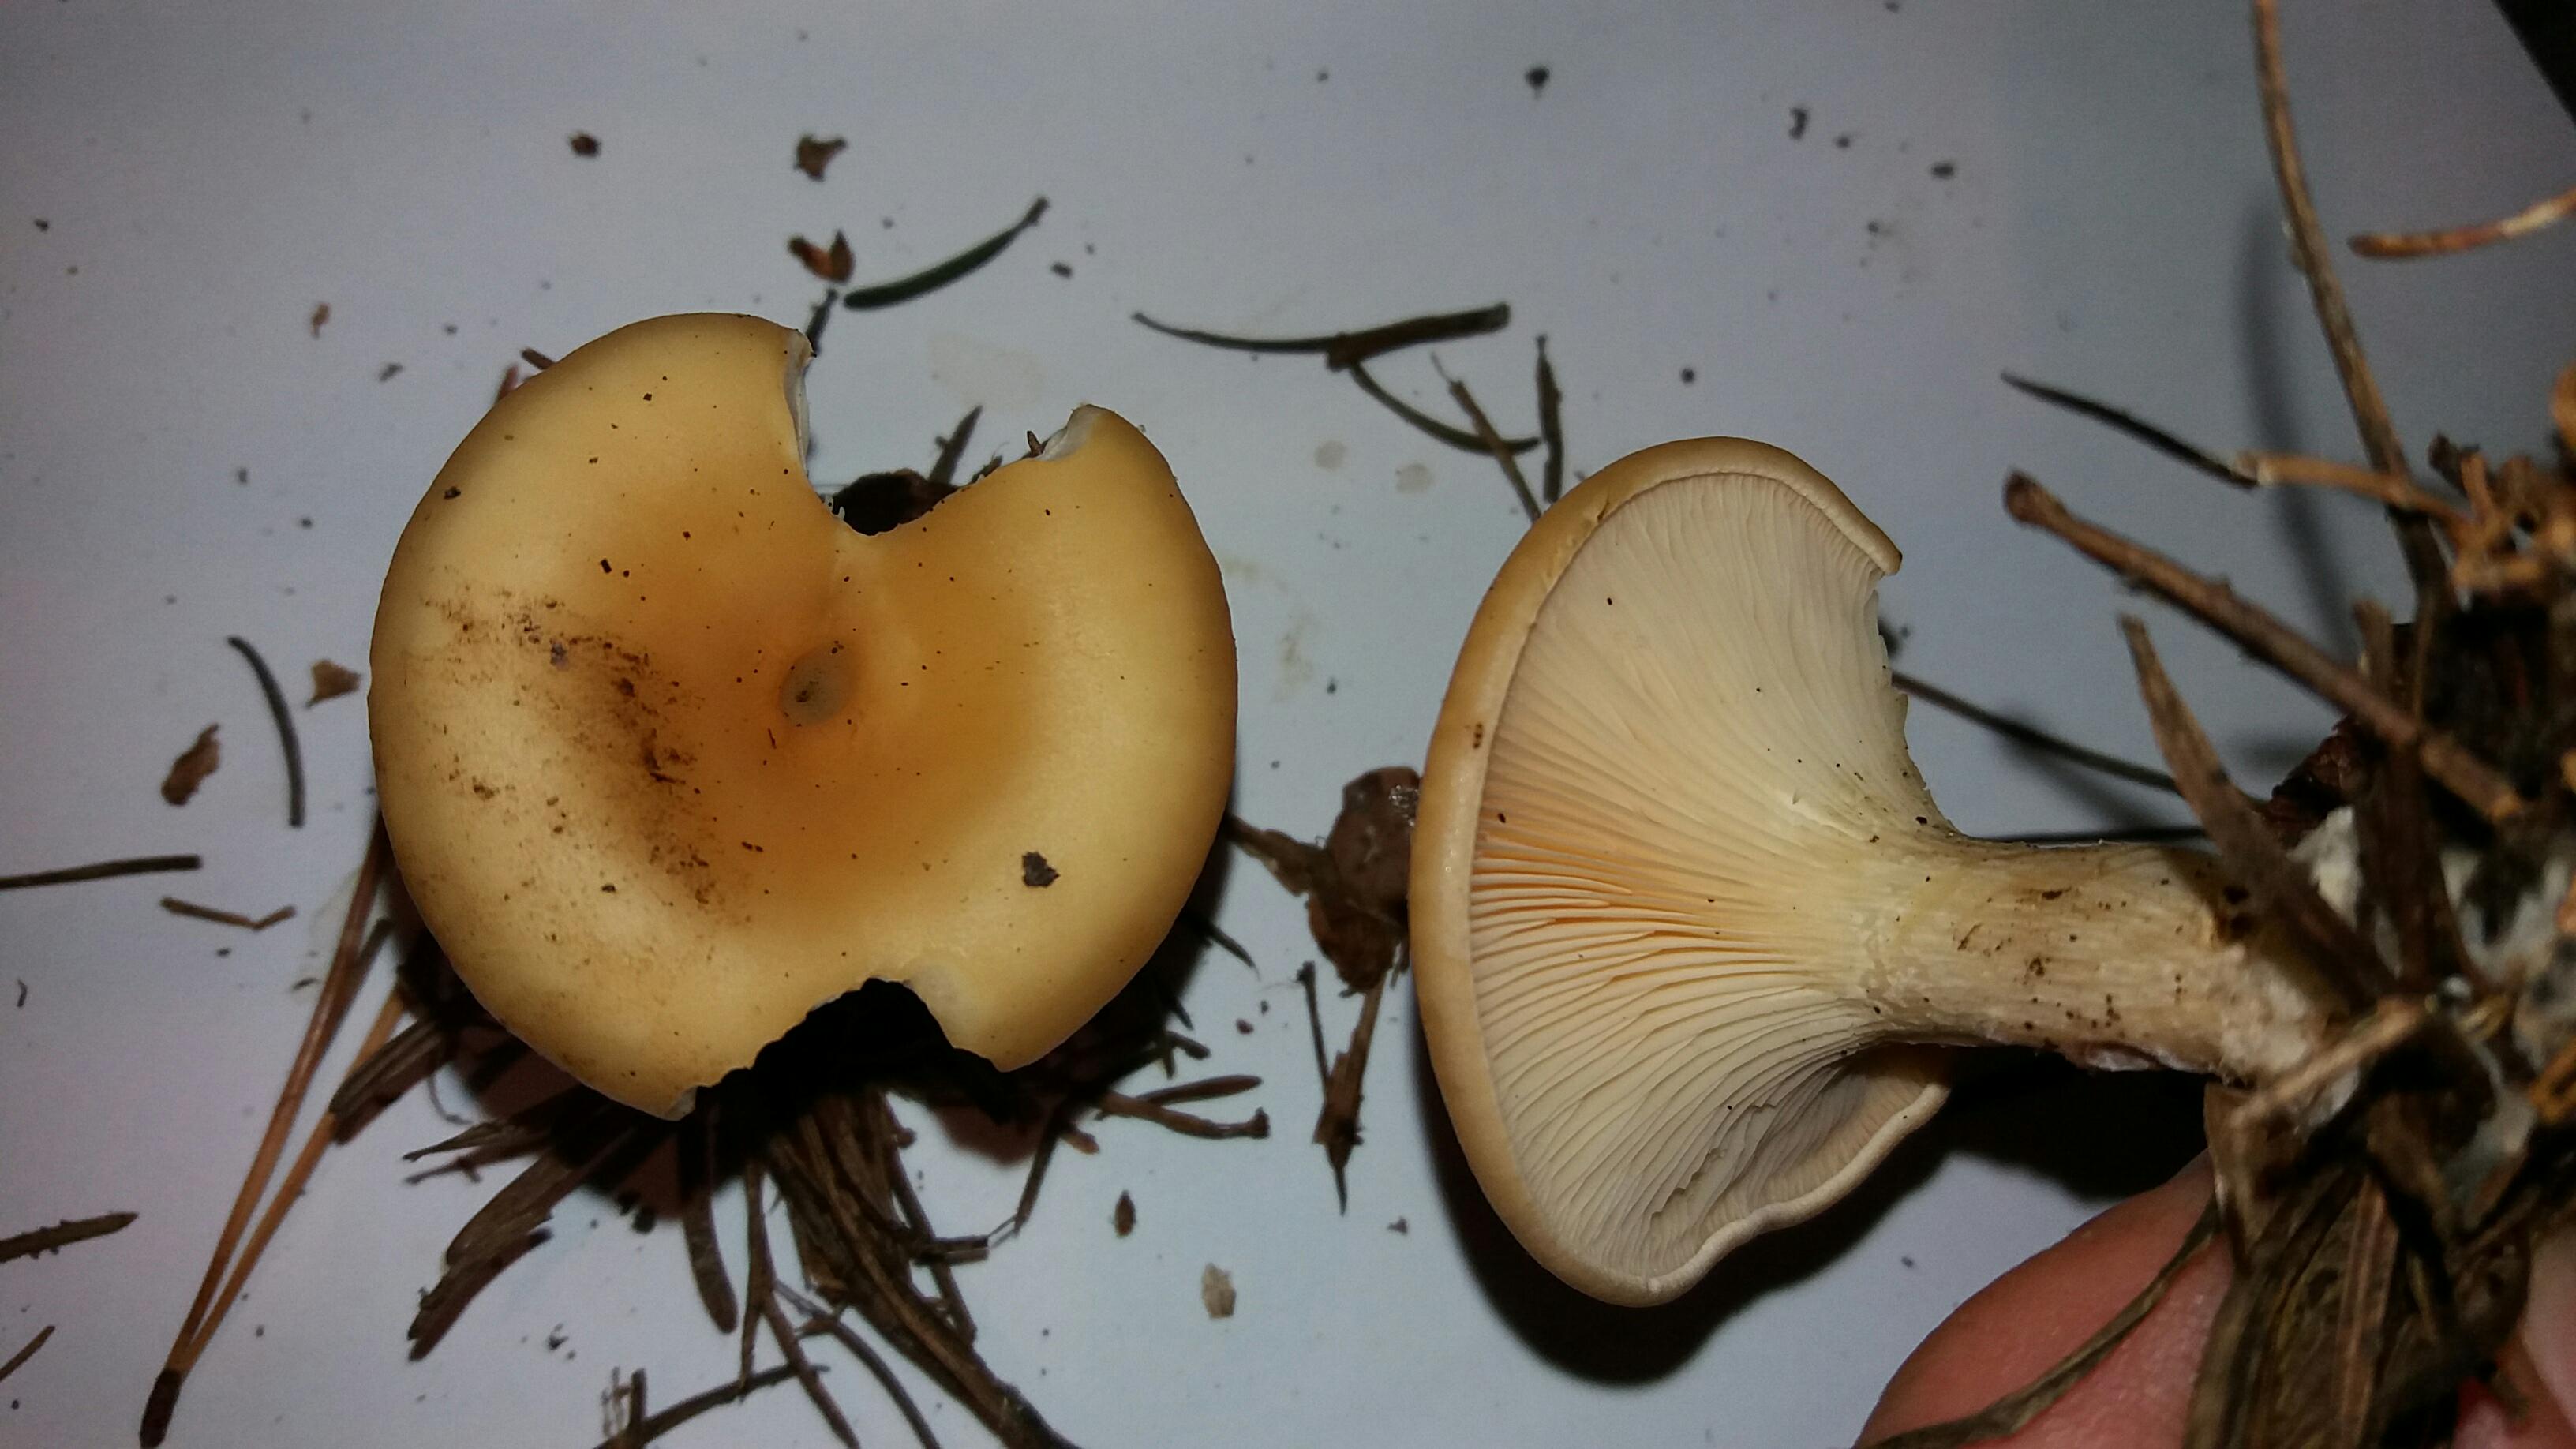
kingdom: Fungi
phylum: Basidiomycota
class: Agaricomycetes
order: Agaricales
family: Tricholomataceae
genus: Paralepista
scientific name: Paralepista flaccida
